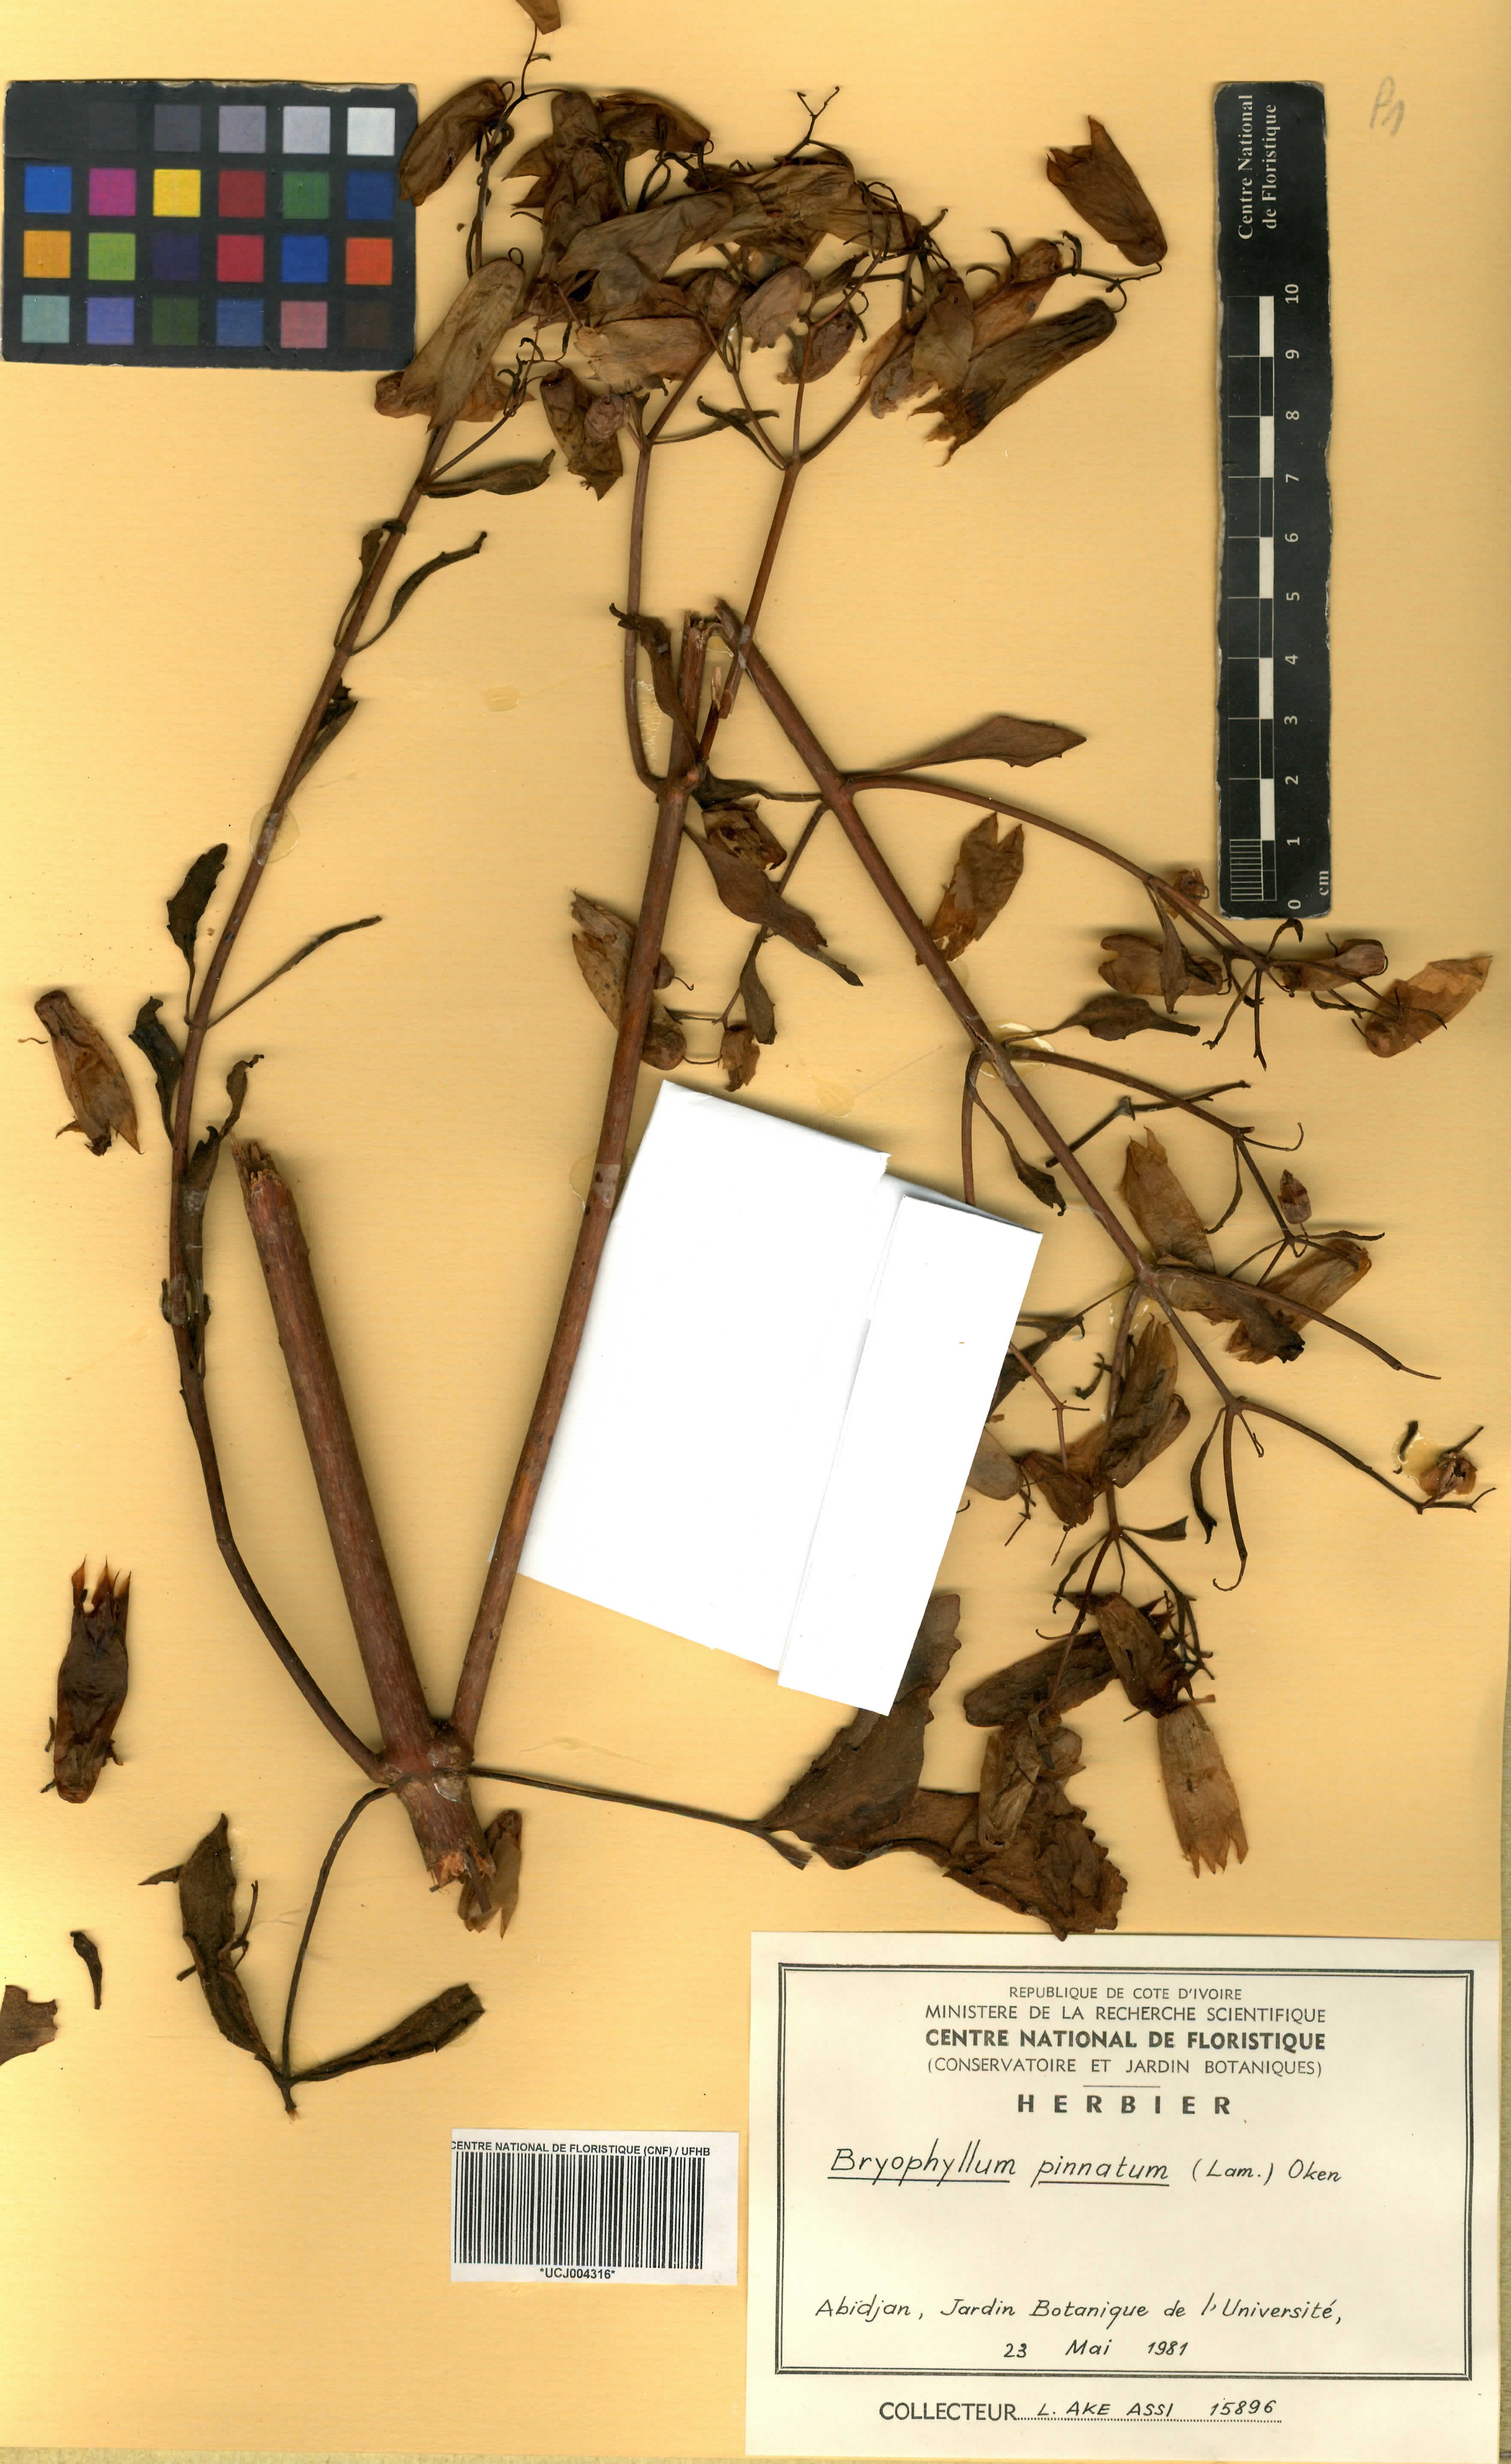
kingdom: Plantae
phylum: Tracheophyta
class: Magnoliopsida
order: Saxifragales
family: Crassulaceae
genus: Kalanchoe
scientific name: Kalanchoe pinnata
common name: Cathedral bells
